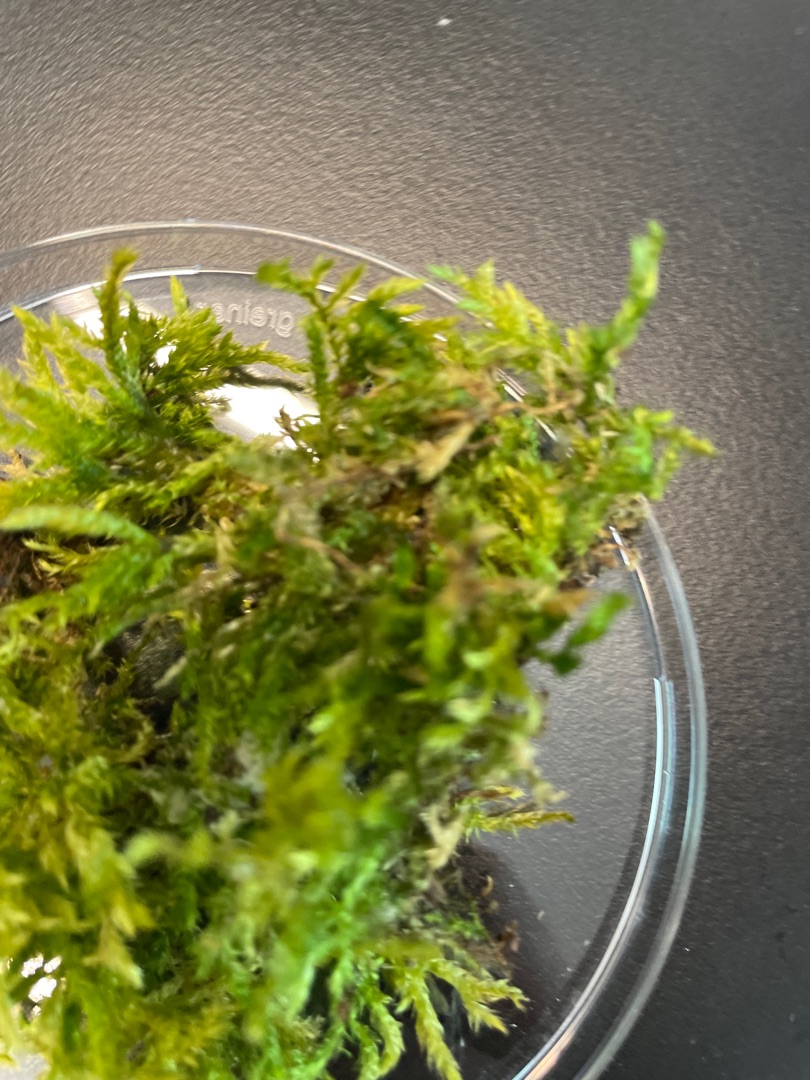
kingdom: Plantae
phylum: Bryophyta
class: Bryopsida
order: Hypnales
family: Brachytheciaceae
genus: Brachythecium
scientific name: Brachythecium rutabulum
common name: Almindelig kortkapsel
